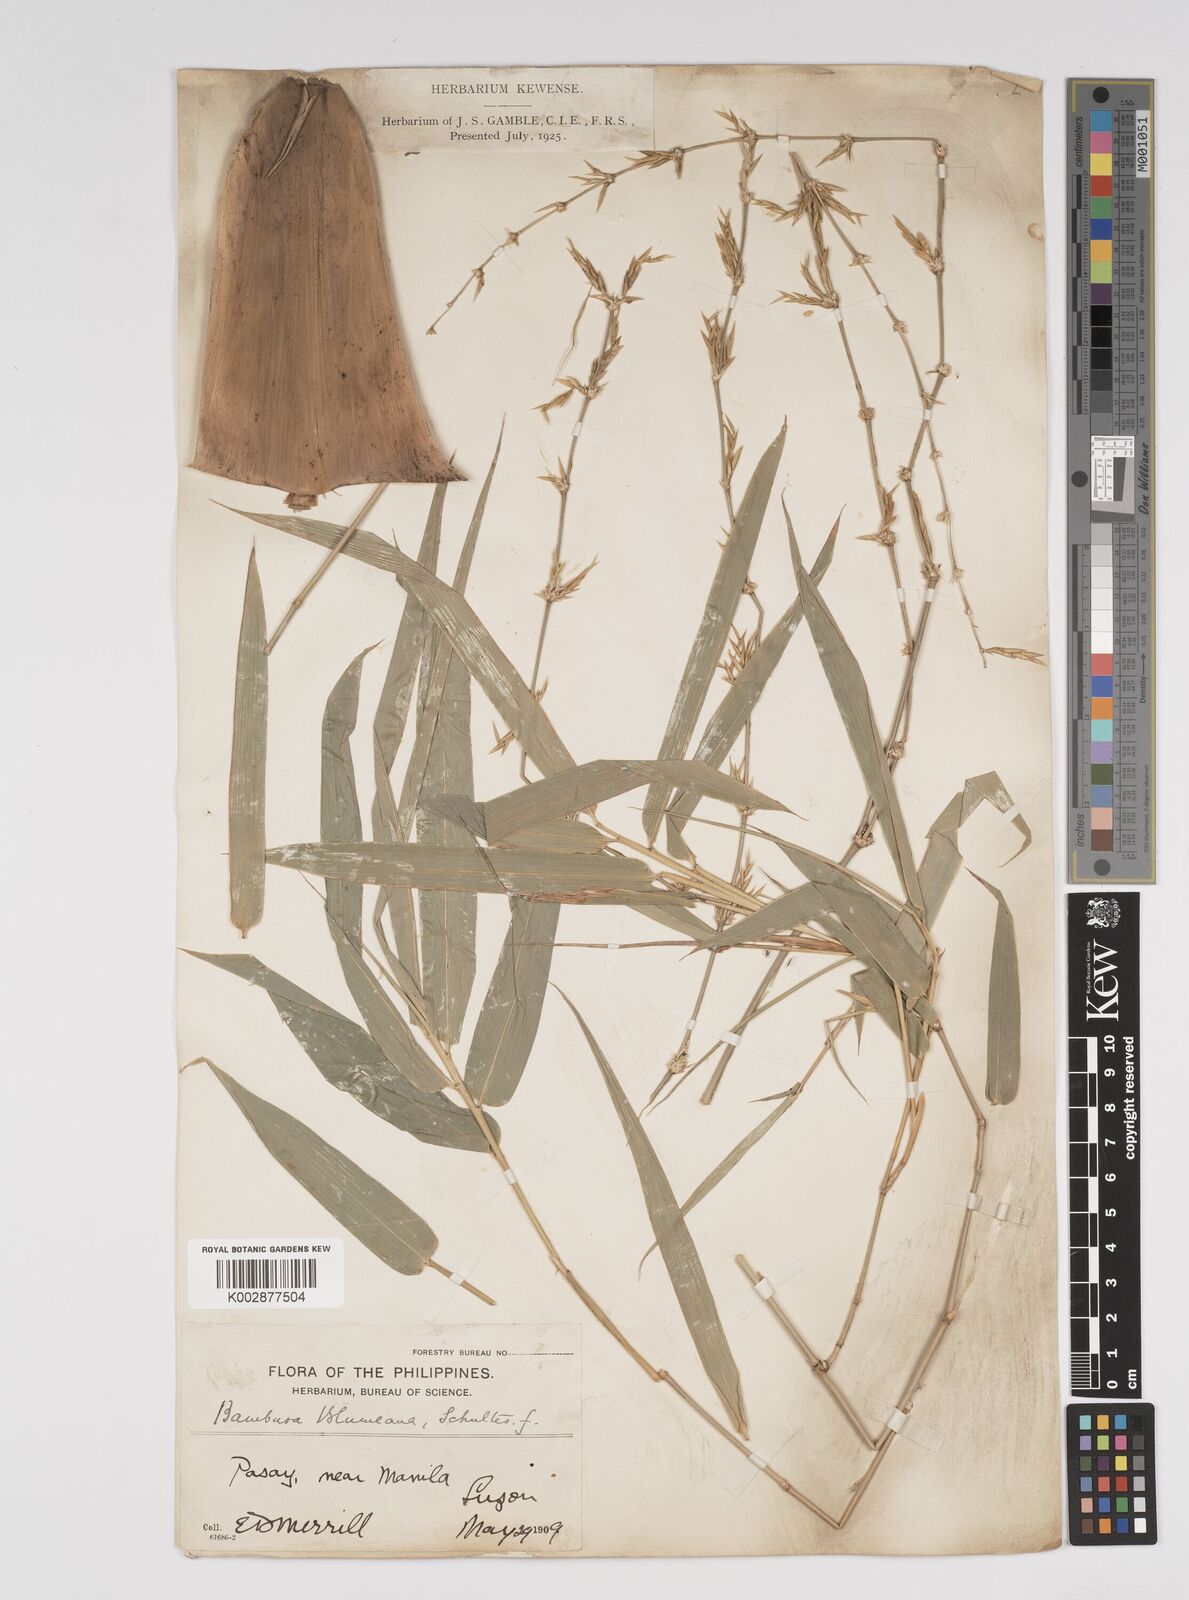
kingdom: Plantae
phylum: Tracheophyta
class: Liliopsida
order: Poales
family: Poaceae
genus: Bambusa
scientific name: Bambusa spinosa
